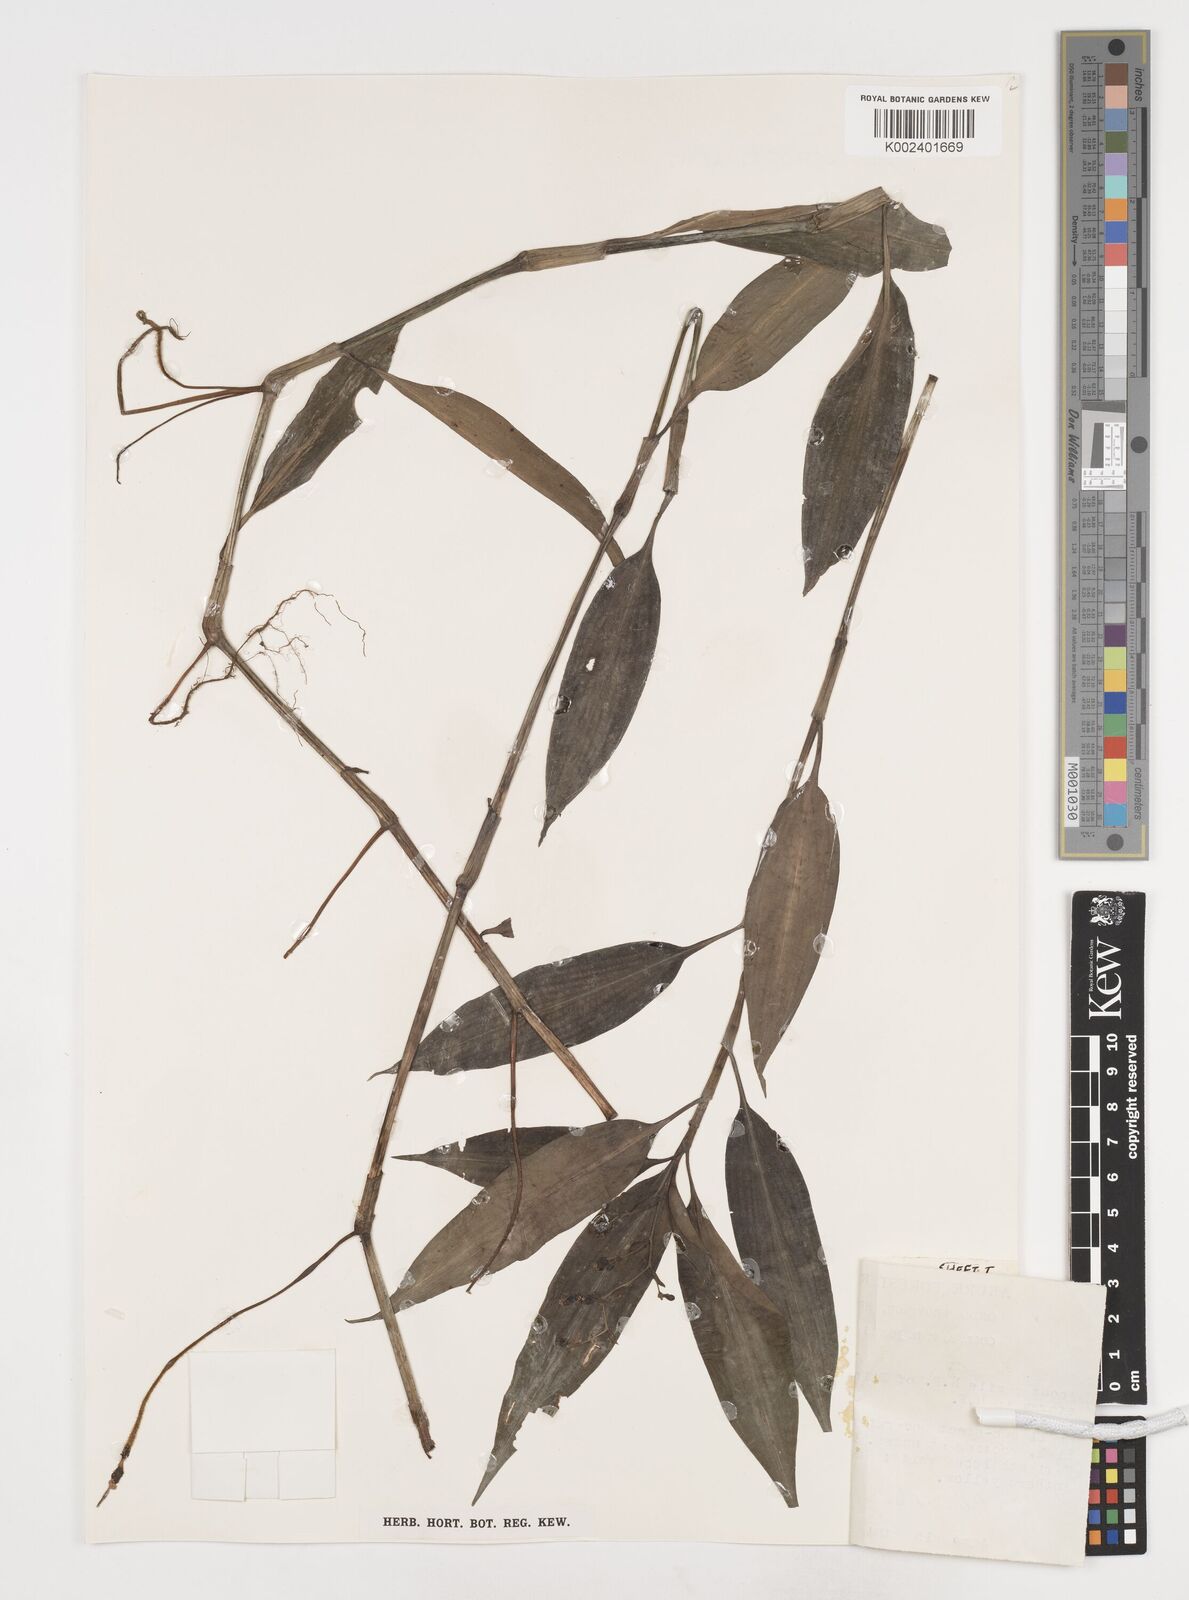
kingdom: Plantae
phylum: Tracheophyta
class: Liliopsida
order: Commelinales
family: Commelinaceae
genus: Pollia
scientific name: Pollia mannii
